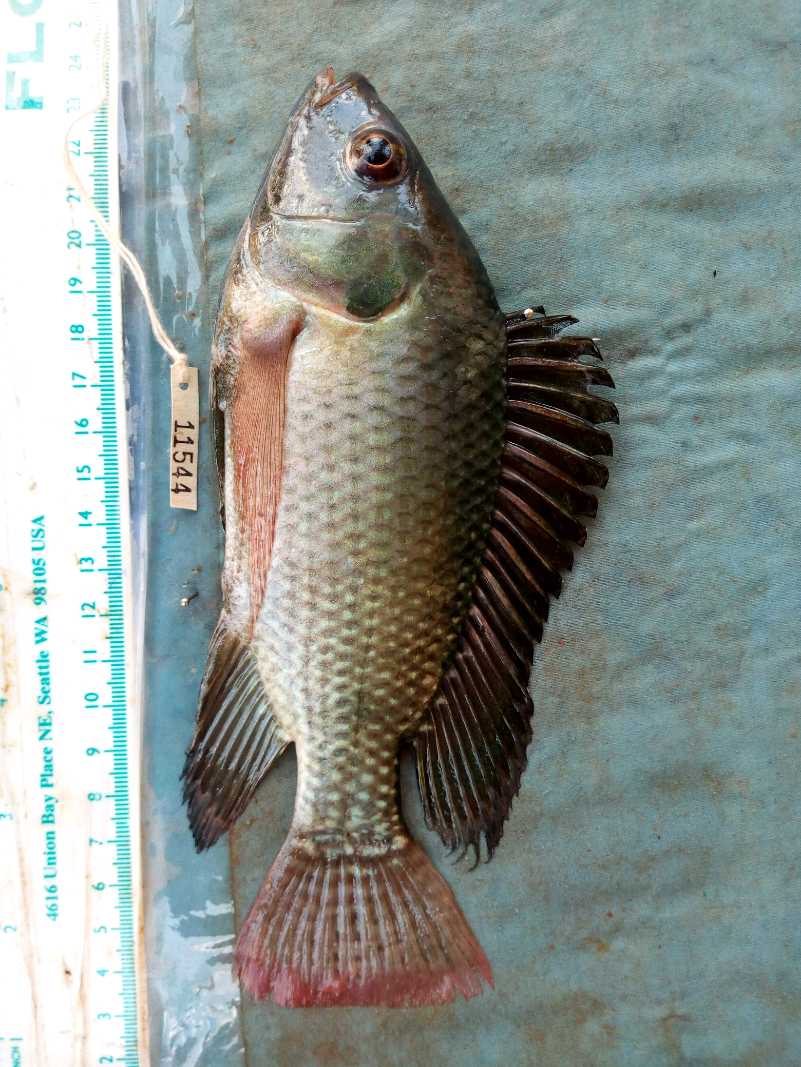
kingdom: Animalia
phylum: Chordata
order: Perciformes
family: Cichlidae
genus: Oreochromis
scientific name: Oreochromis niloticus
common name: Nile tilapia
